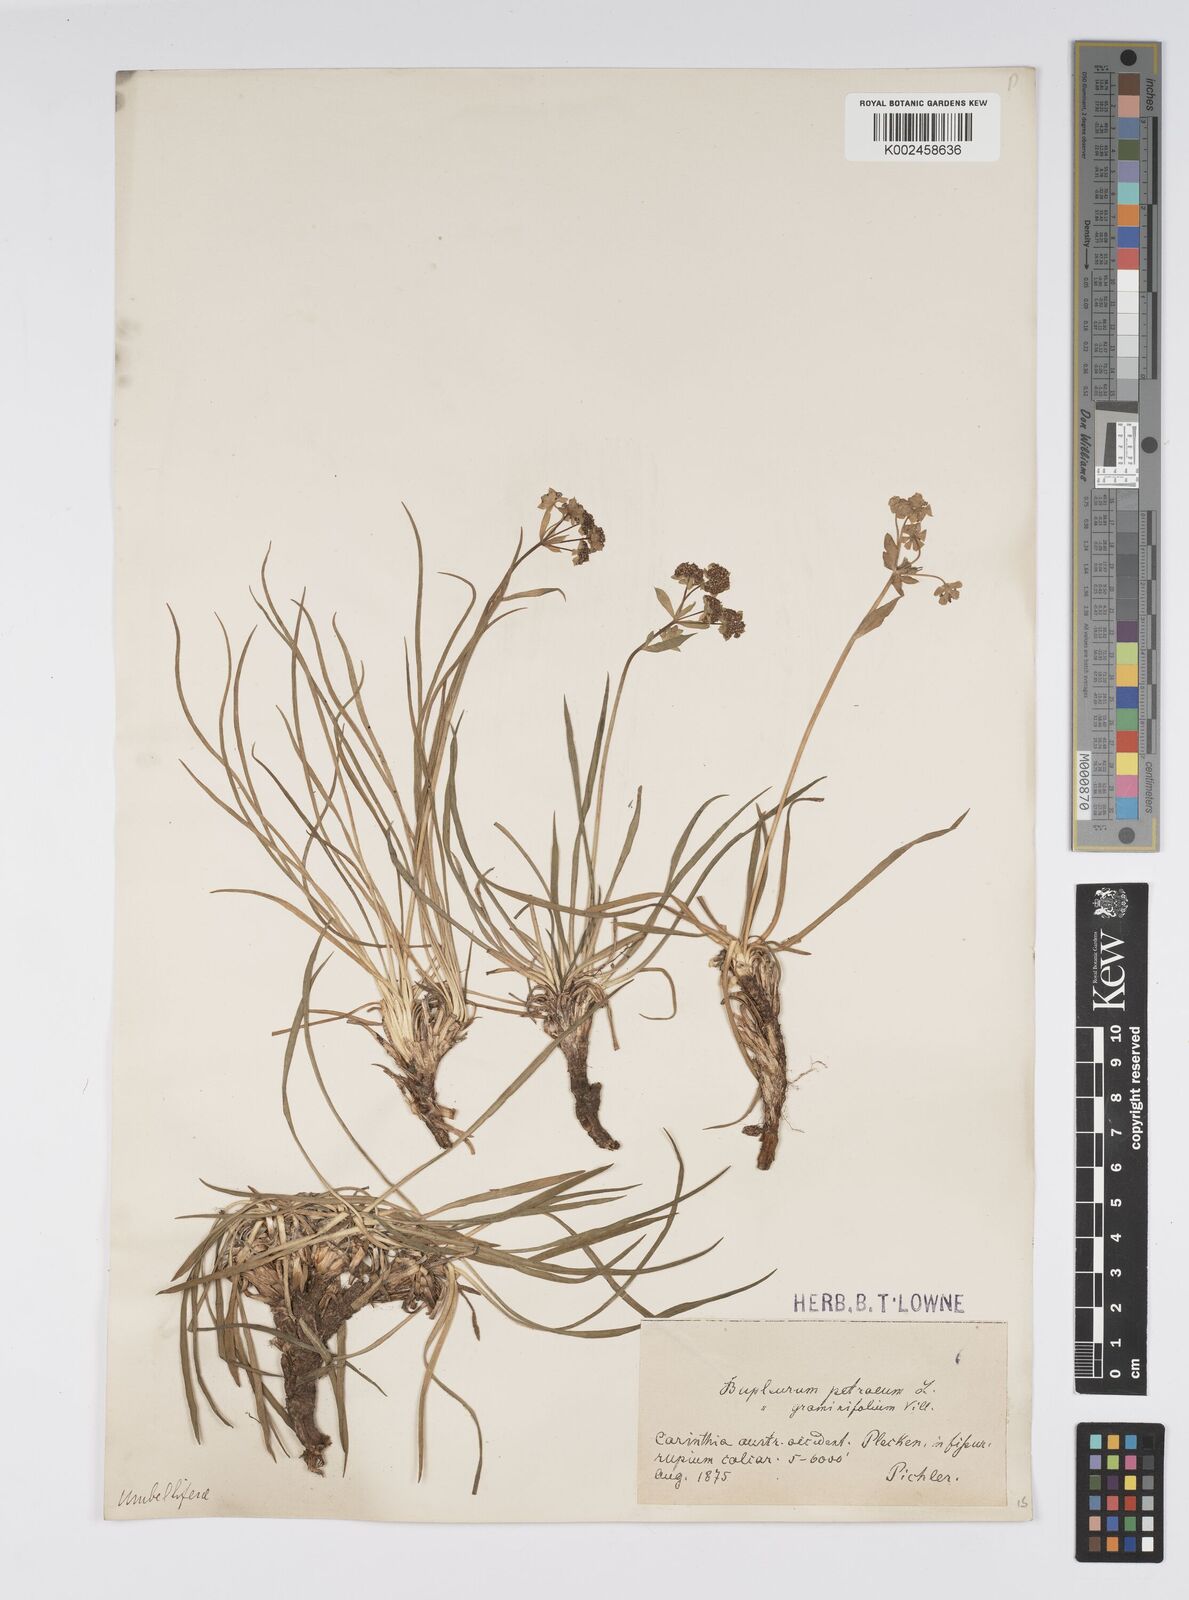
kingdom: Plantae
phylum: Tracheophyta
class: Magnoliopsida
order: Apiales
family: Apiaceae
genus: Bupleurum
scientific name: Bupleurum petraeum
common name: Rock hare's-ear
